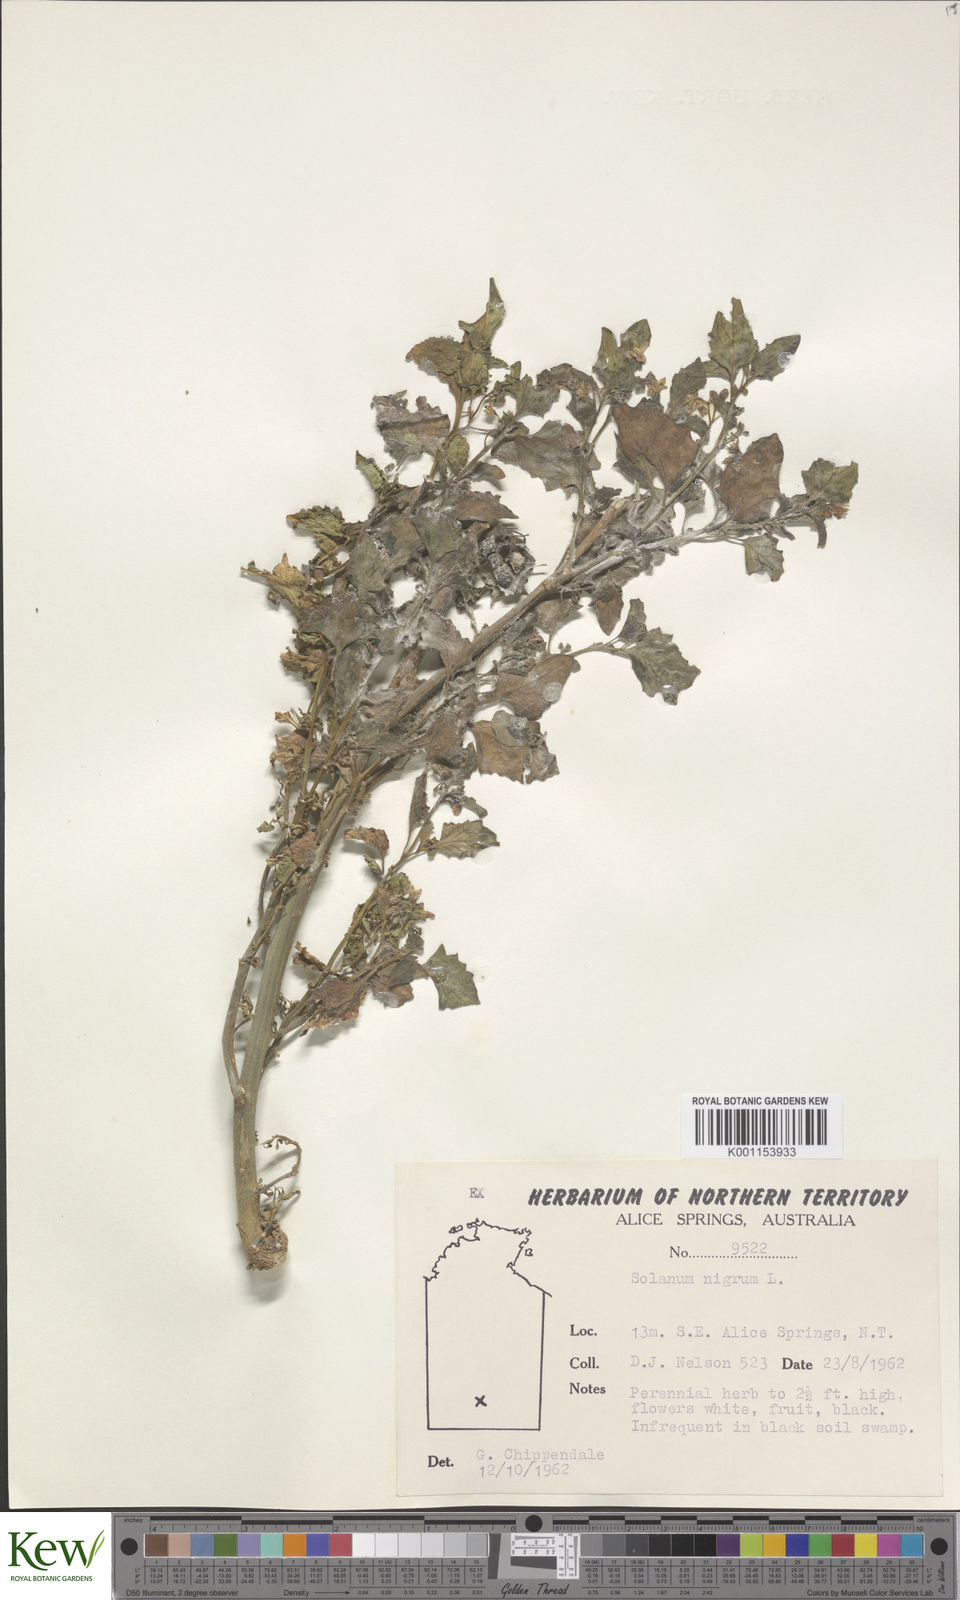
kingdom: Plantae
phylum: Tracheophyta
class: Magnoliopsida
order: Solanales
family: Solanaceae
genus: Solanum
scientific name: Solanum nigrum
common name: Black nightshade
